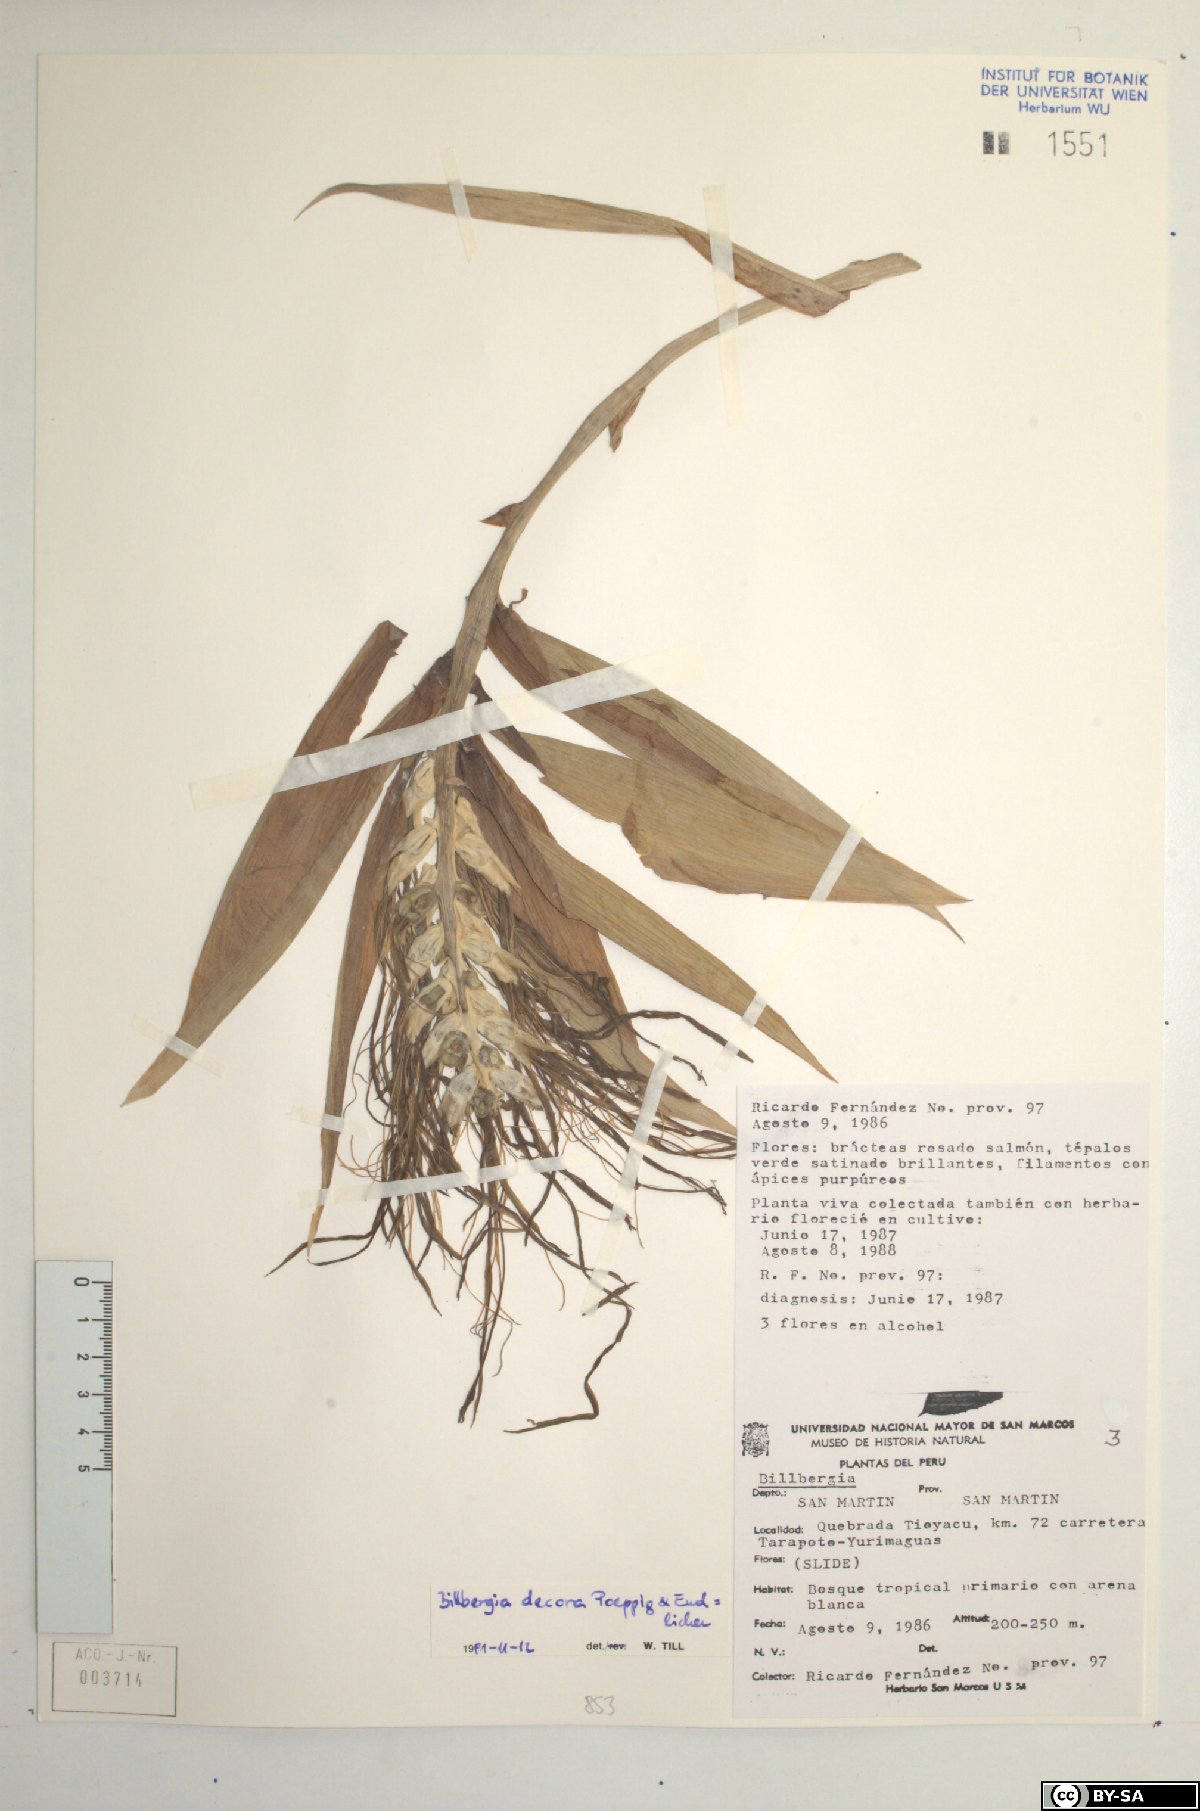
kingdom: Plantae
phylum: Tracheophyta
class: Liliopsida
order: Poales
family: Bromeliaceae
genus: Billbergia
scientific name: Billbergia decora
